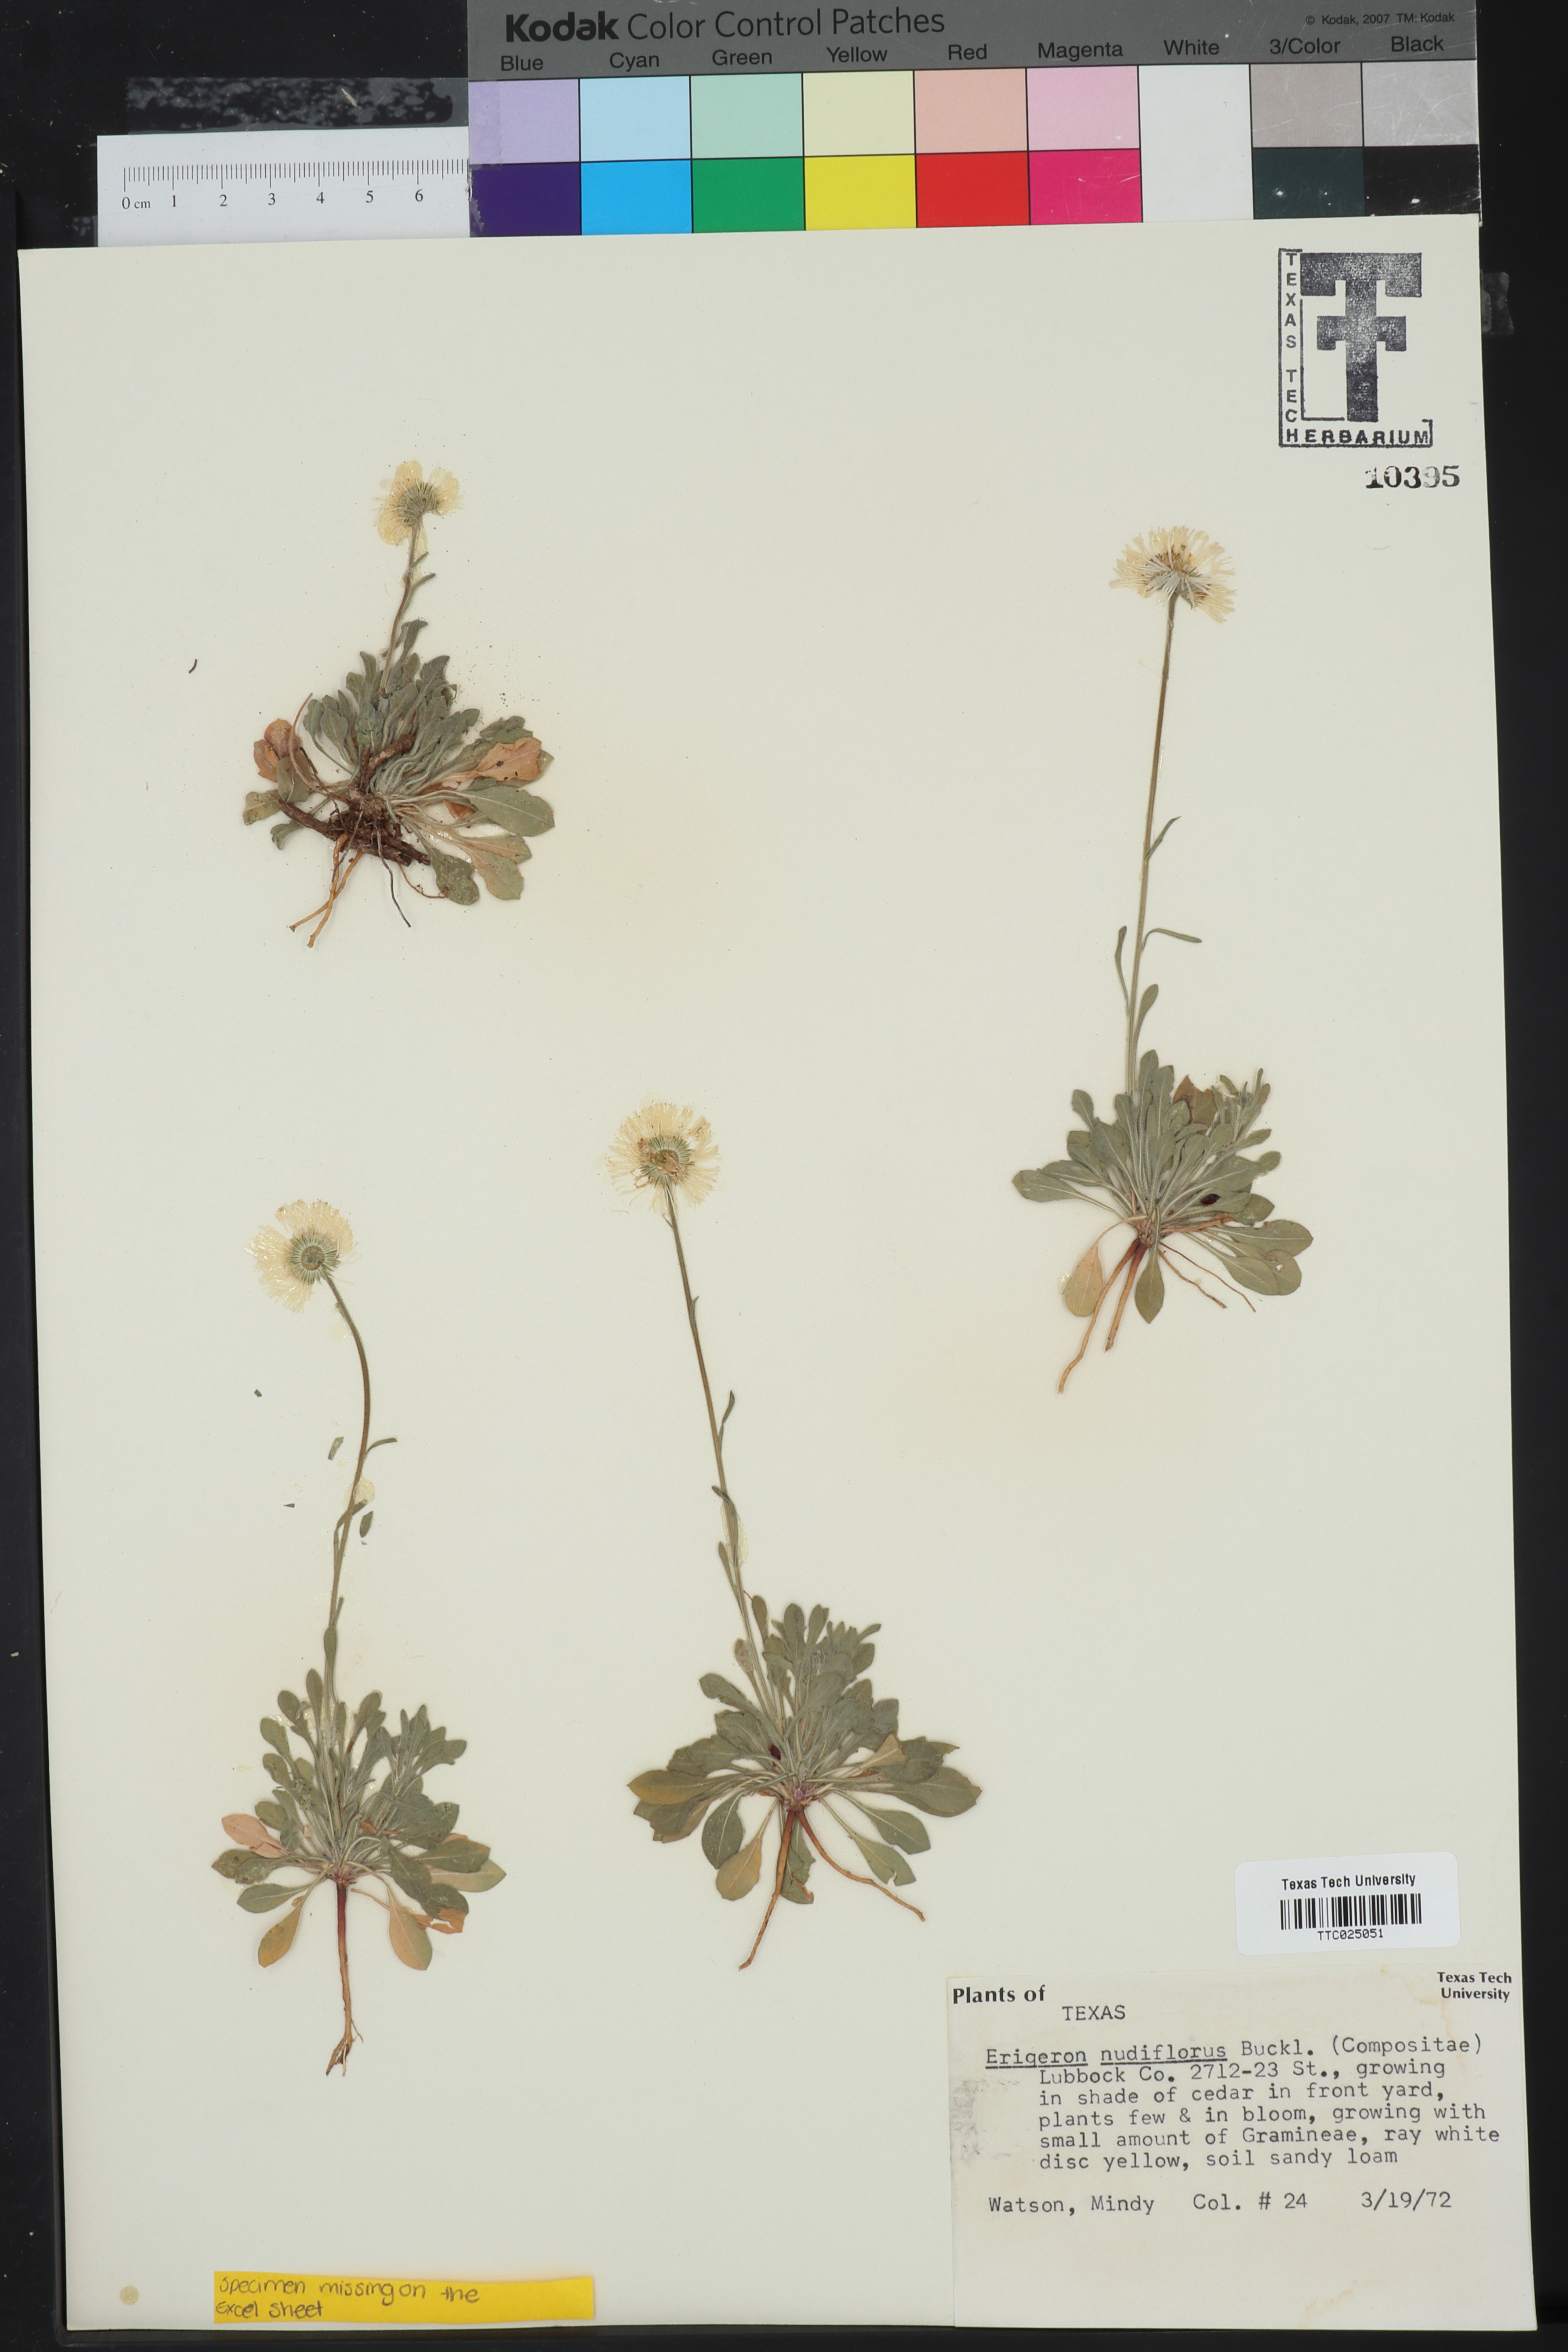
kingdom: Plantae
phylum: Tracheophyta
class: Magnoliopsida
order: Asterales
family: Asteraceae
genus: Erigeron
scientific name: Erigeron flagellaris
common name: Running fleabane
